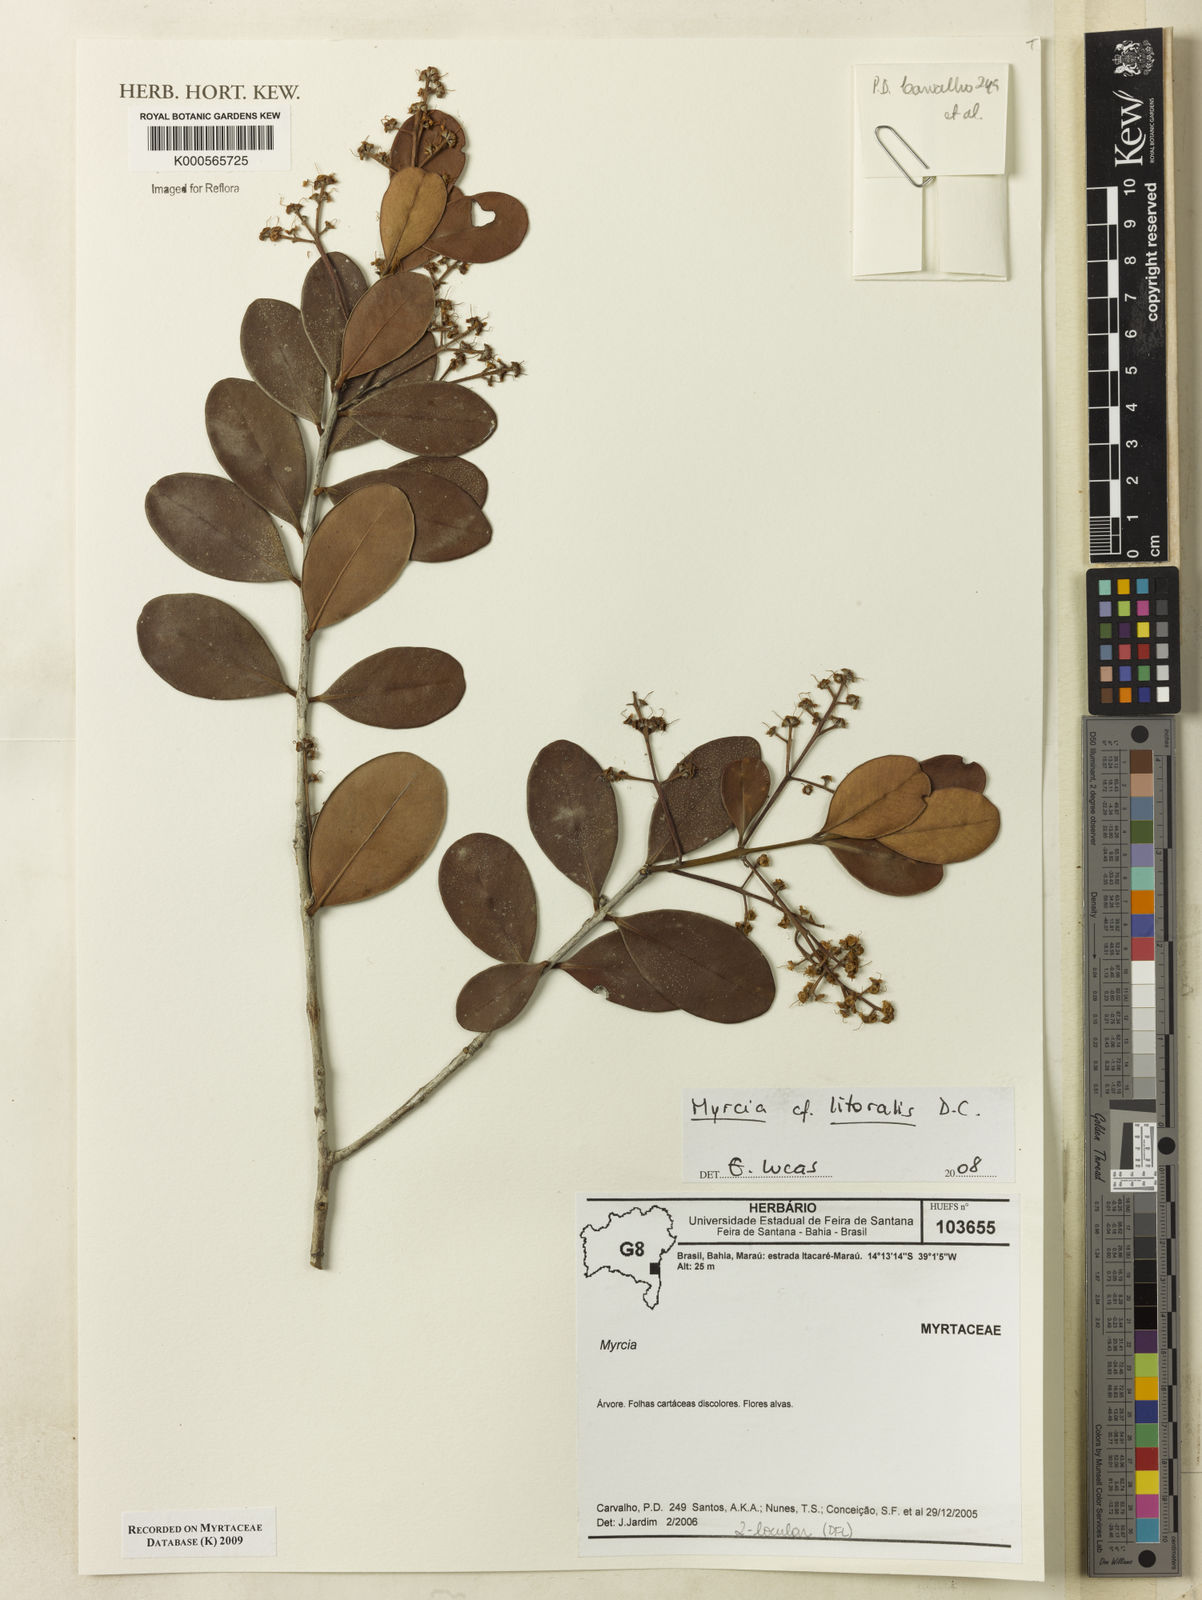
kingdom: Plantae
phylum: Tracheophyta
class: Magnoliopsida
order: Myrtales
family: Myrtaceae
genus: Myrcia
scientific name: Myrcia littoralis
